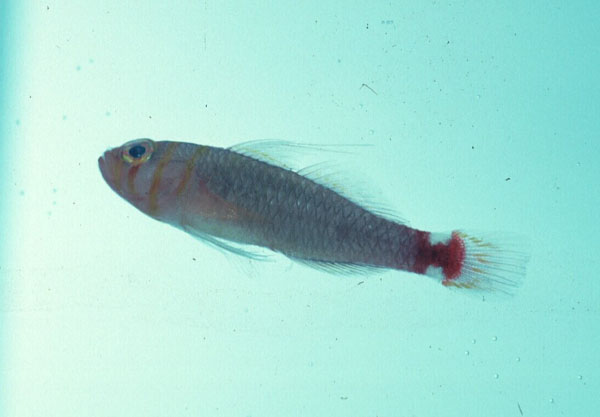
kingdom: Animalia
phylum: Chordata
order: Perciformes
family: Gobiidae
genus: Trimma
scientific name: Trimma bisella
